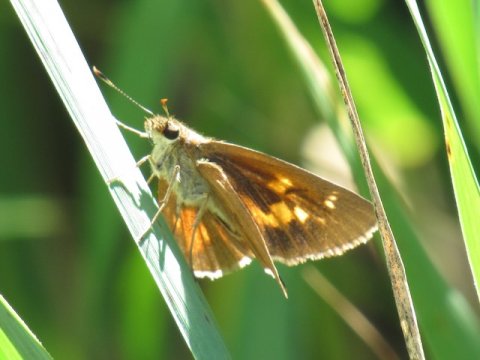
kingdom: Animalia
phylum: Arthropoda
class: Insecta
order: Lepidoptera
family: Hesperiidae
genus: Poanes
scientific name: Poanes viator
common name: Broad-winged Skipper
